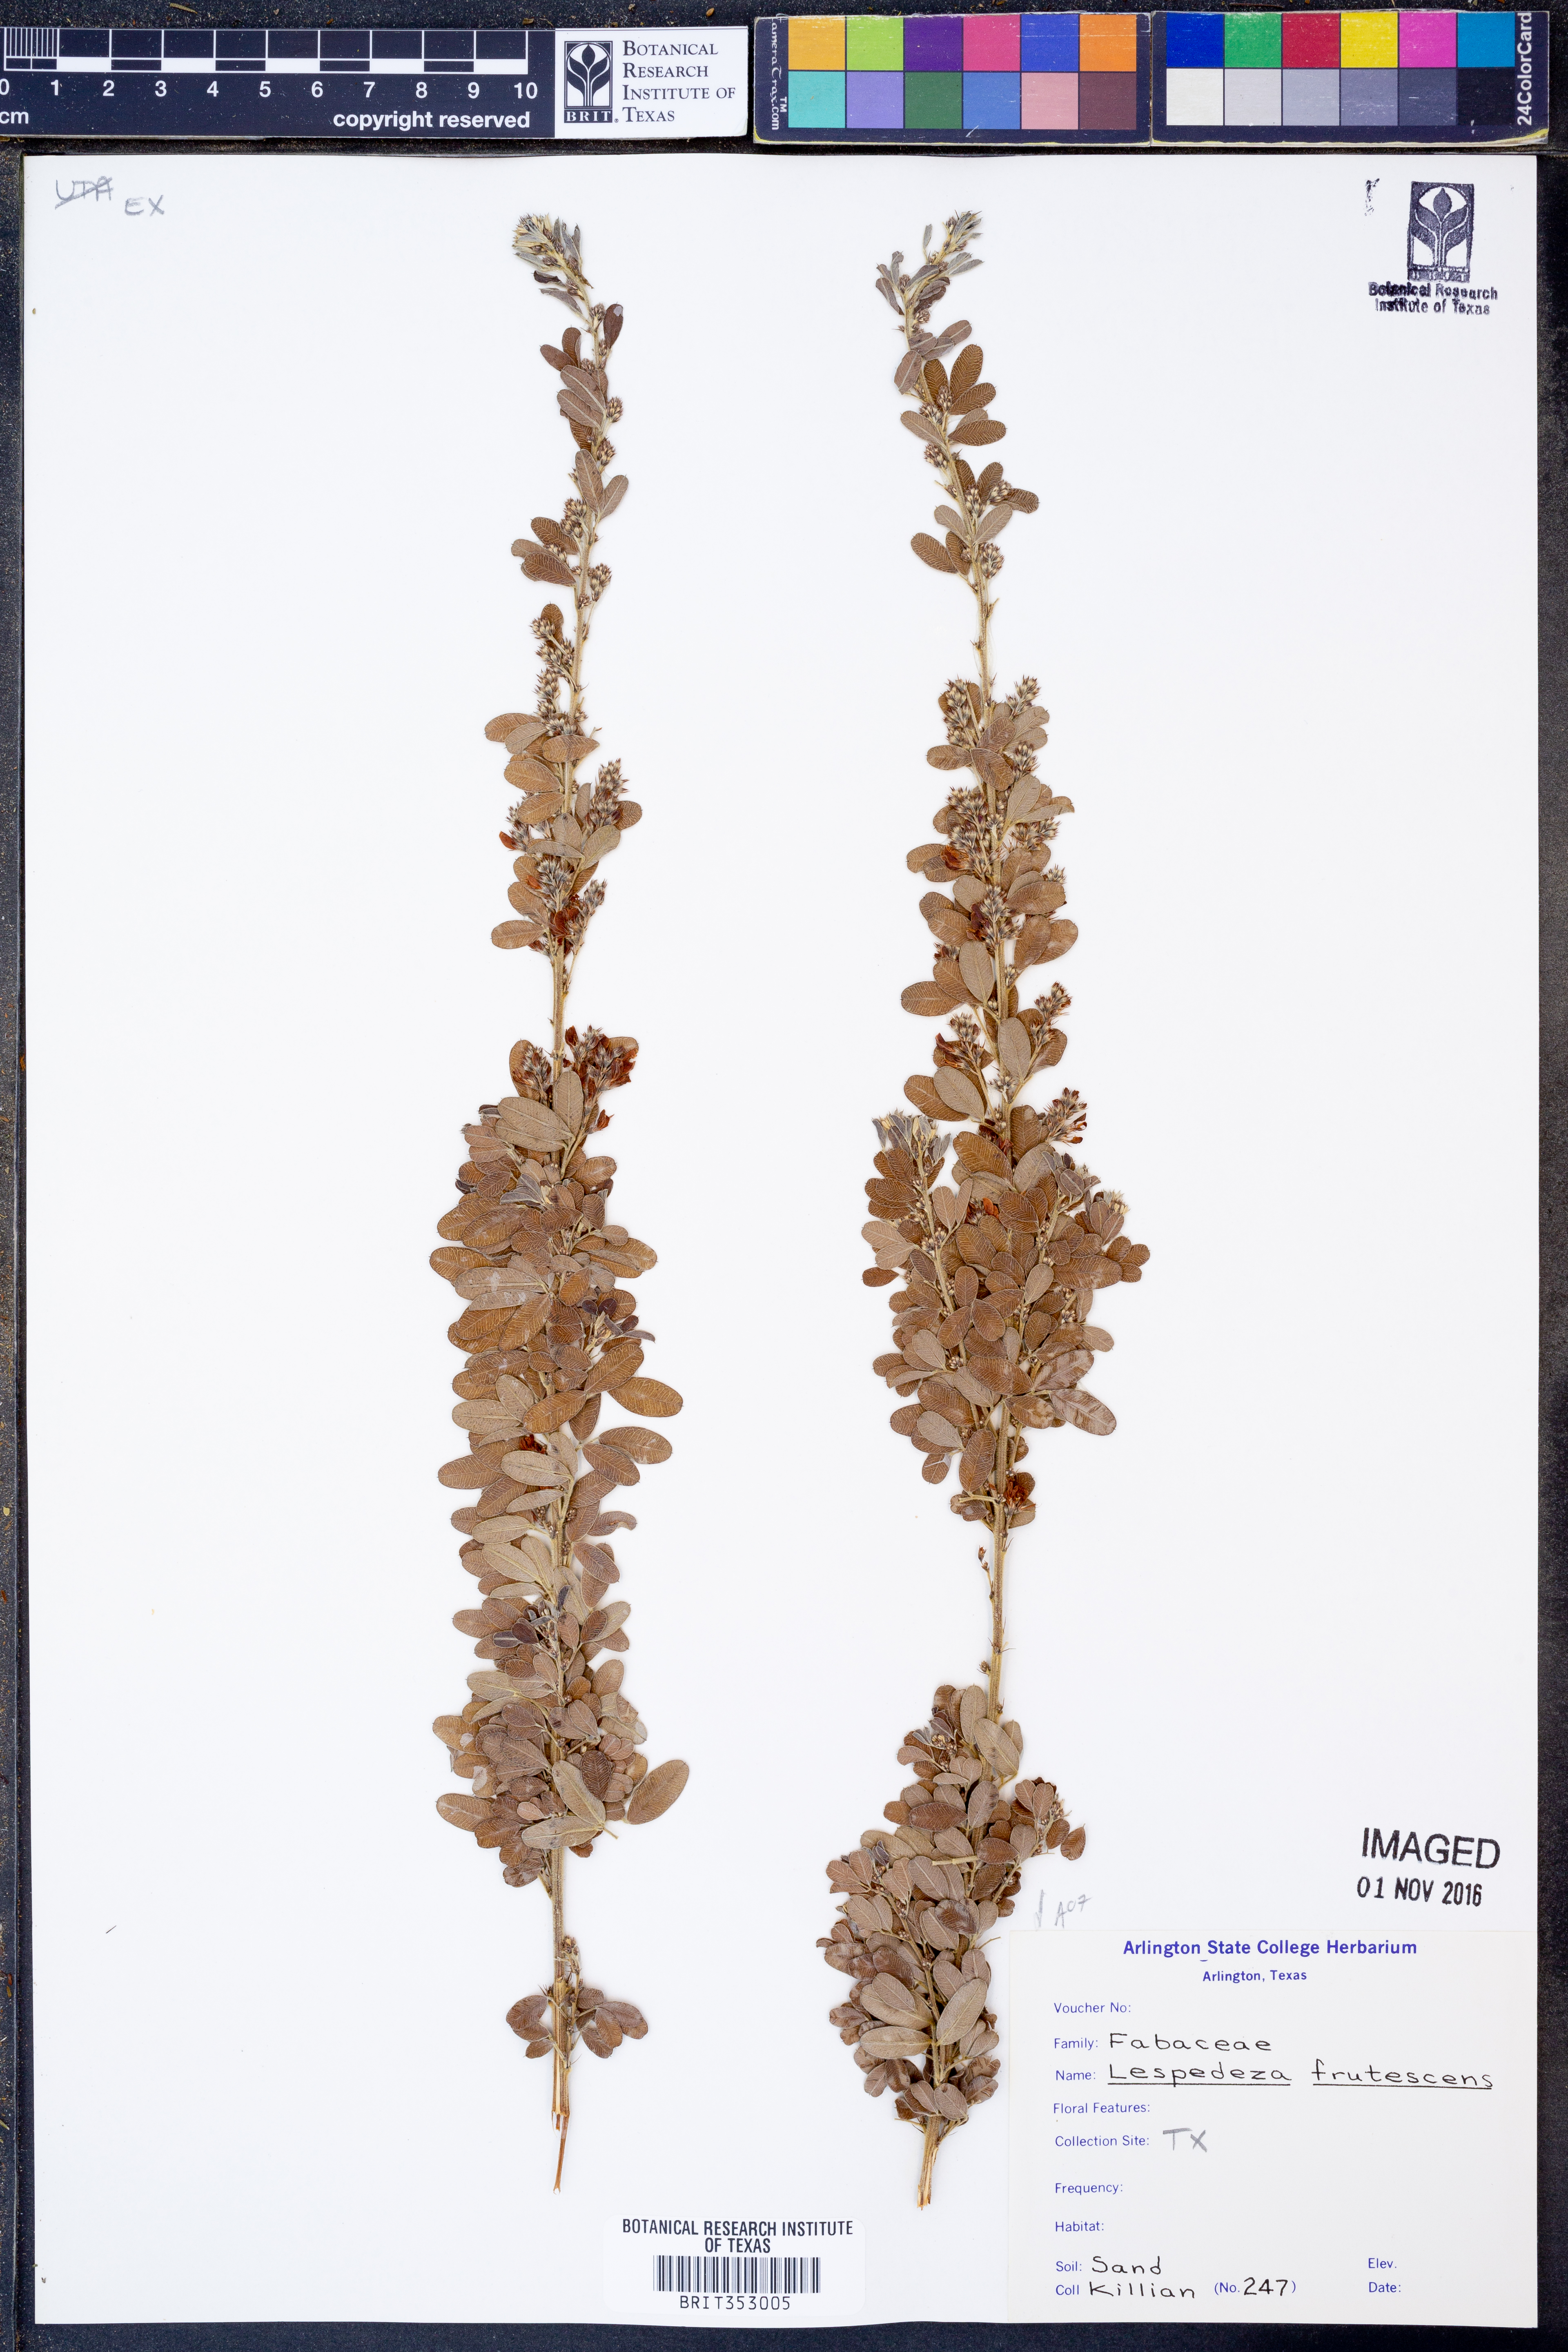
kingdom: Plantae
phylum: Tracheophyta
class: Magnoliopsida
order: Fabales
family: Fabaceae
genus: Lespedeza
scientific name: Lespedeza violacea
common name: Wand bush-clover
